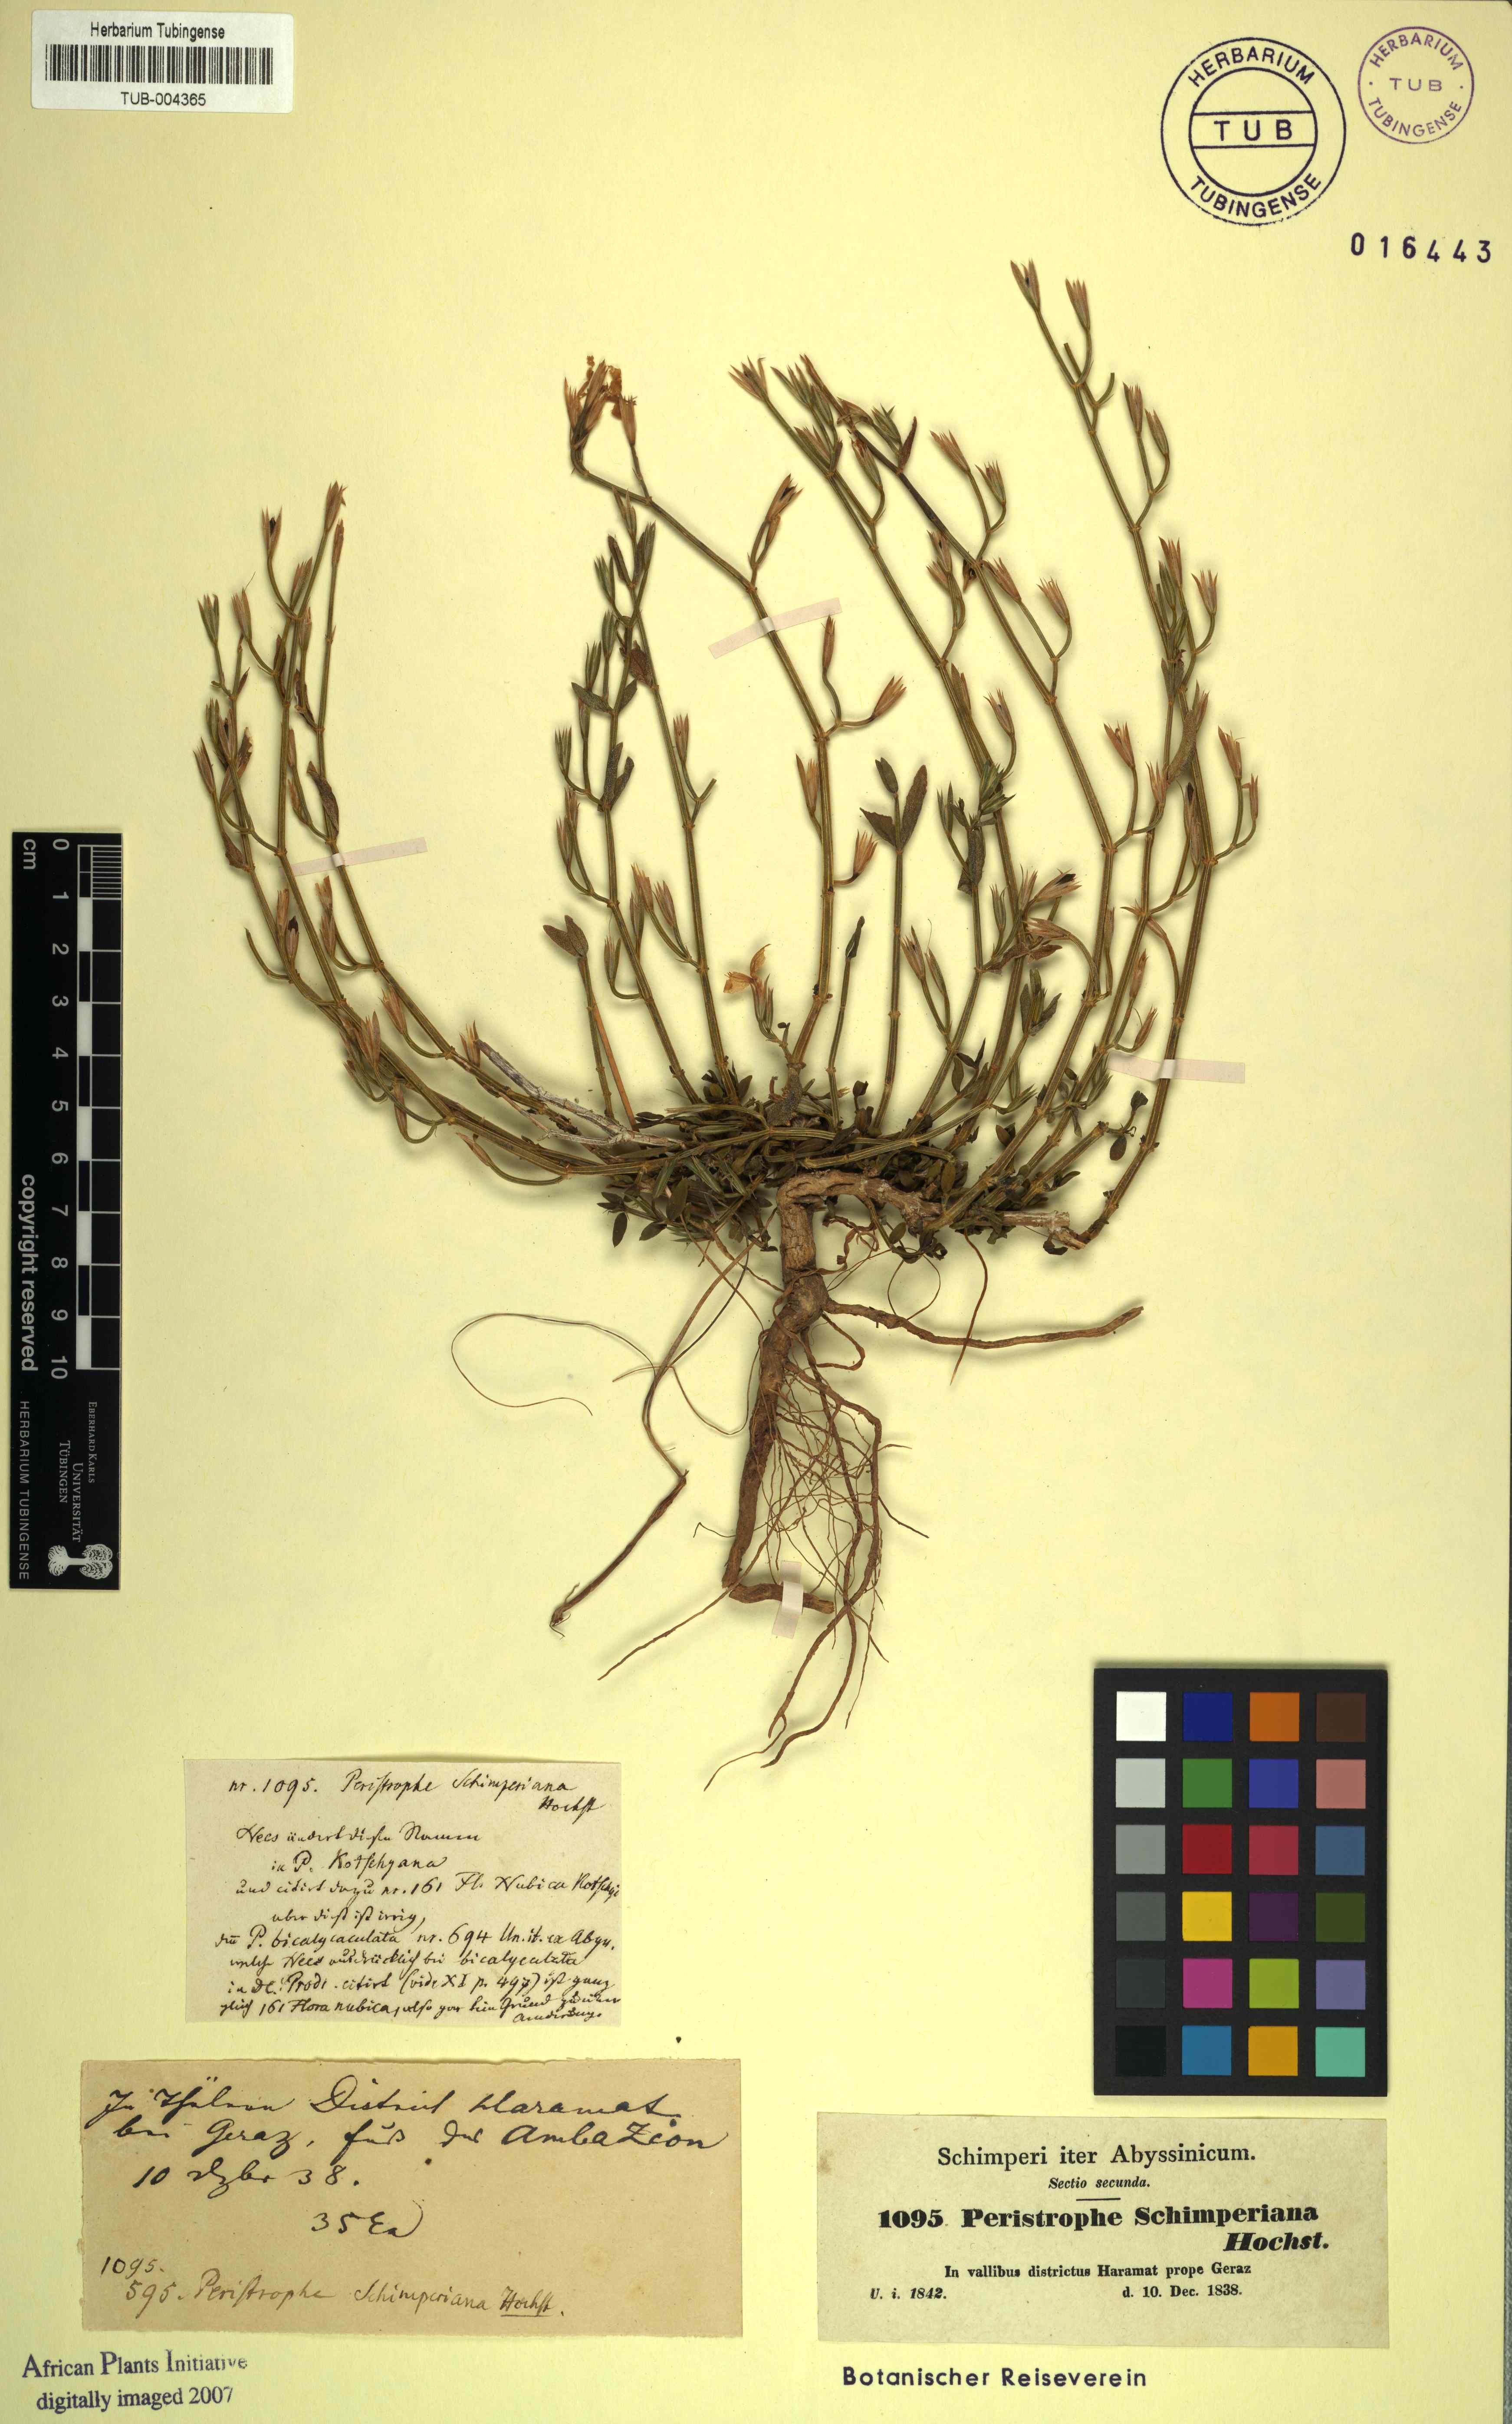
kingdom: Plantae
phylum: Tracheophyta
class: Magnoliopsida
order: Lamiales
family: Acanthaceae
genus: Dicliptera
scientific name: Dicliptera paniculata
